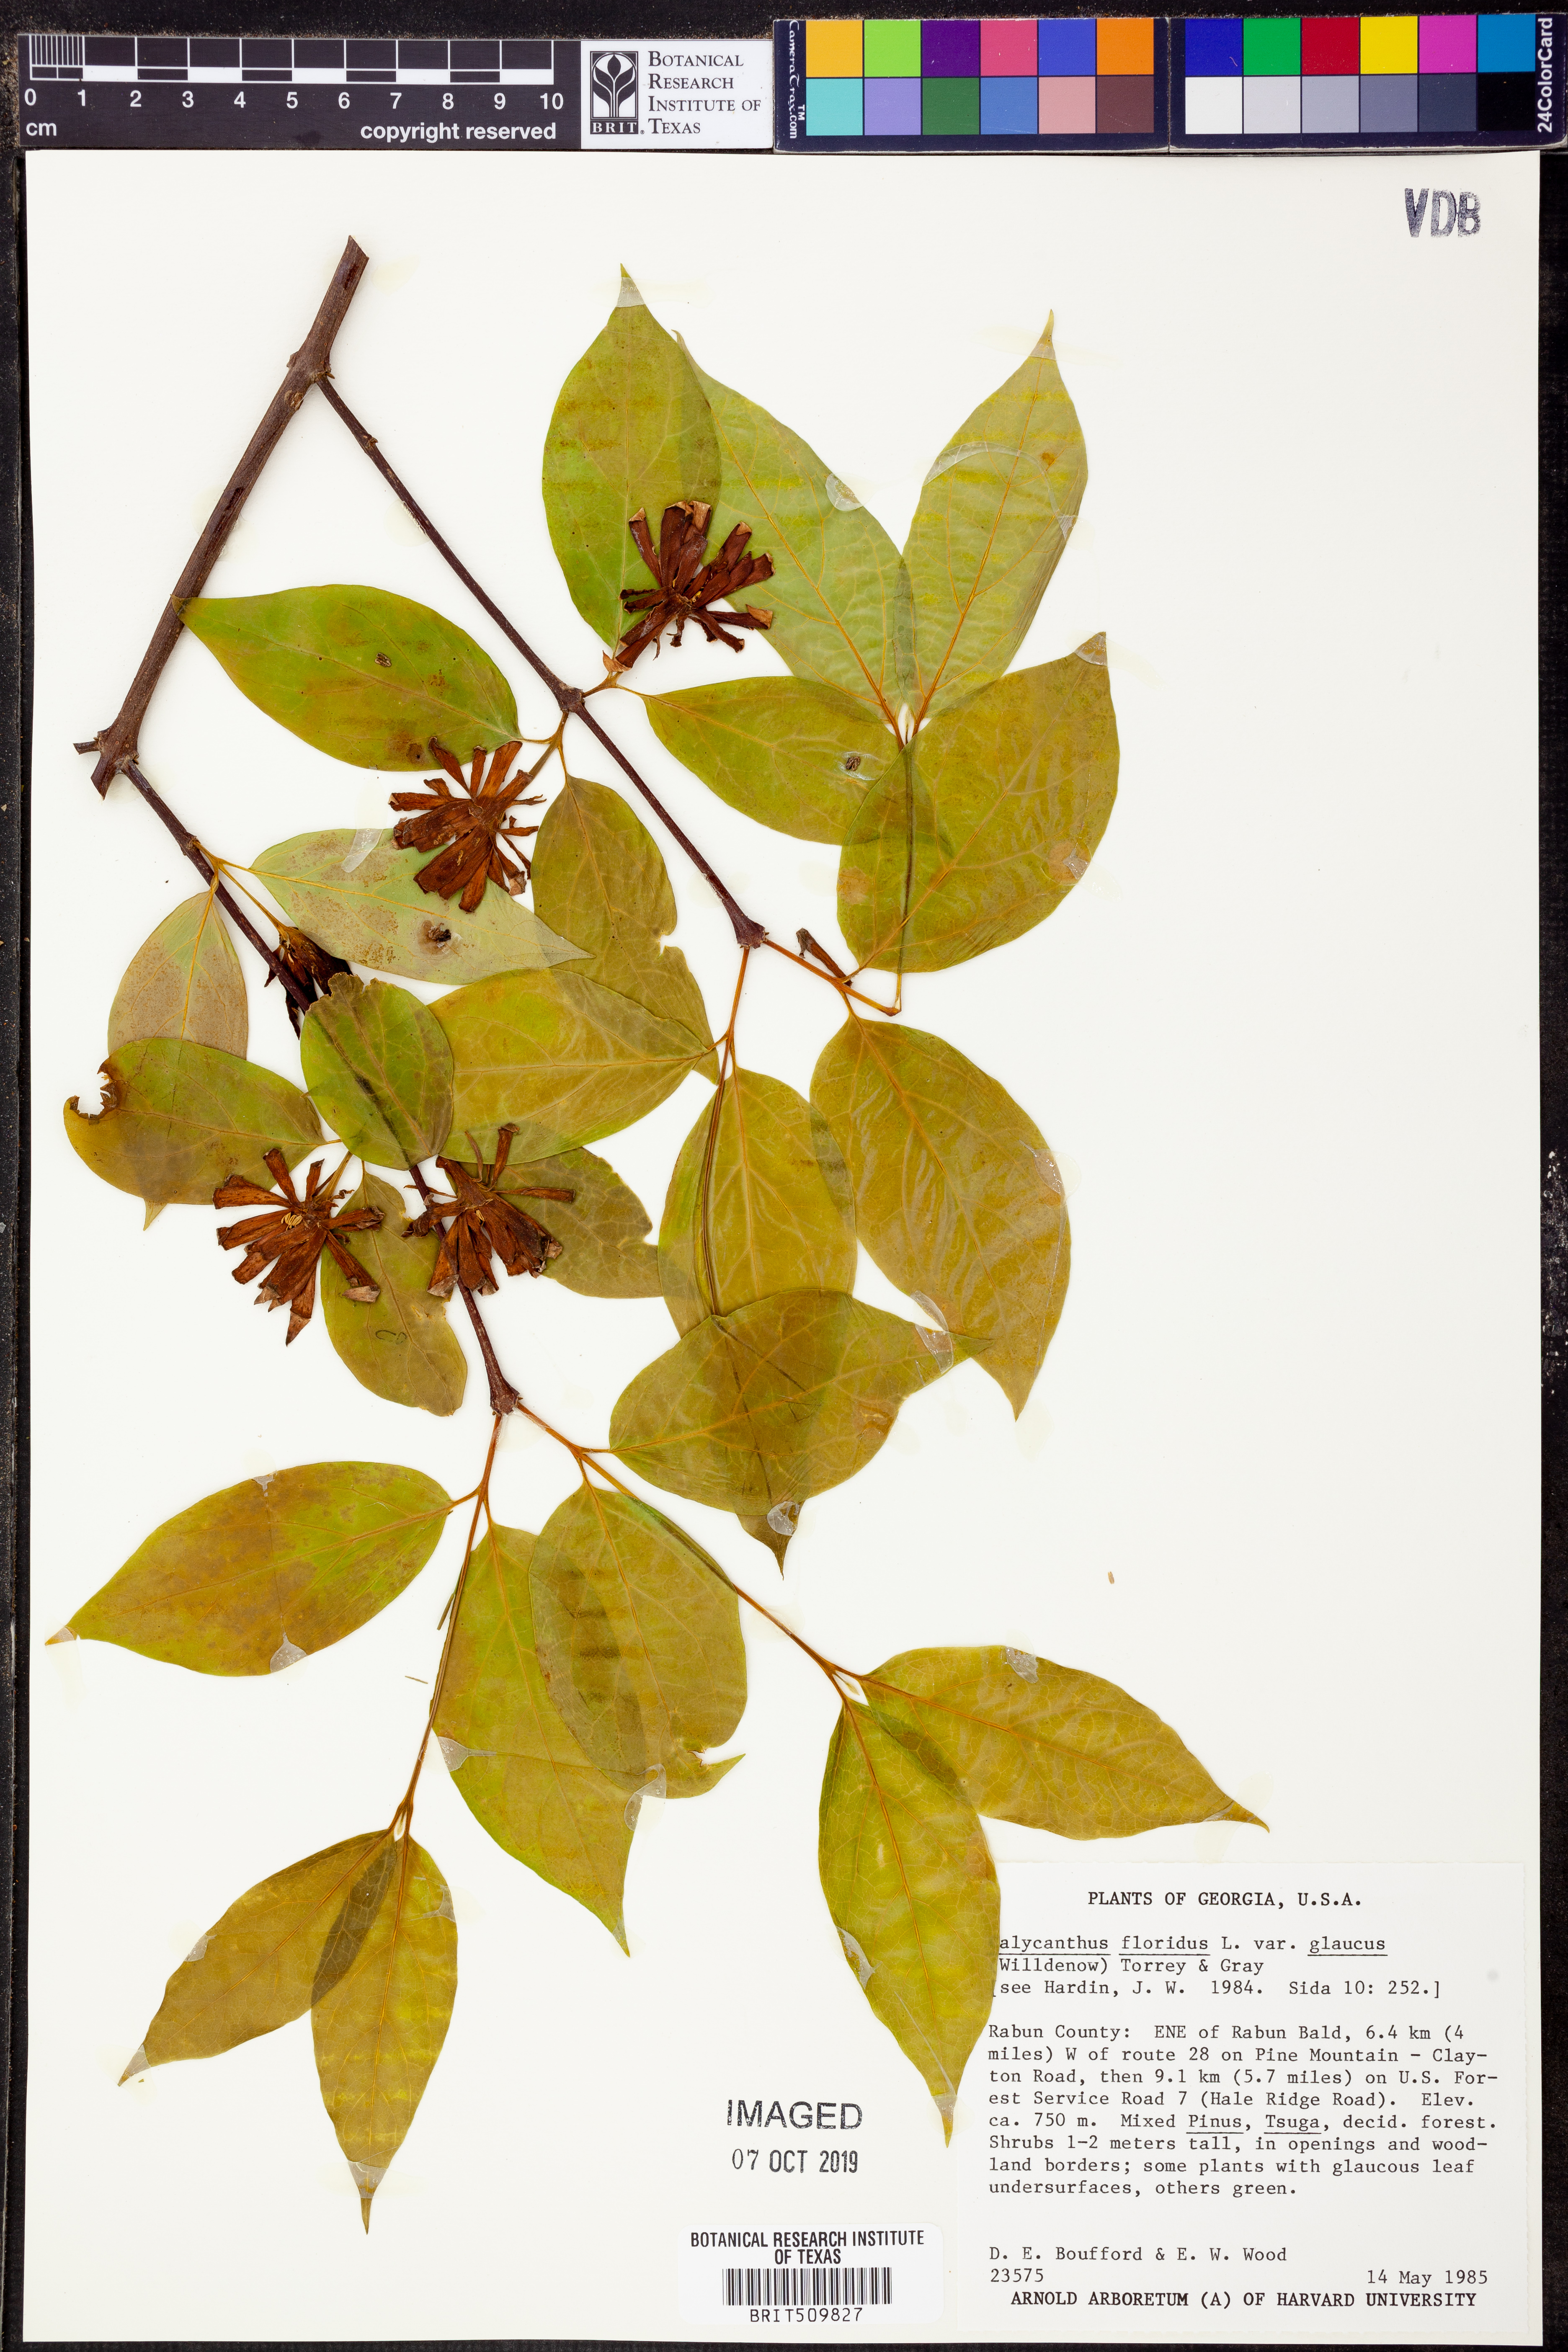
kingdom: Plantae
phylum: Tracheophyta
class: Magnoliopsida
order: Laurales
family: Calycanthaceae
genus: Calycanthus
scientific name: Calycanthus floridus
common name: Carolina-allspice
